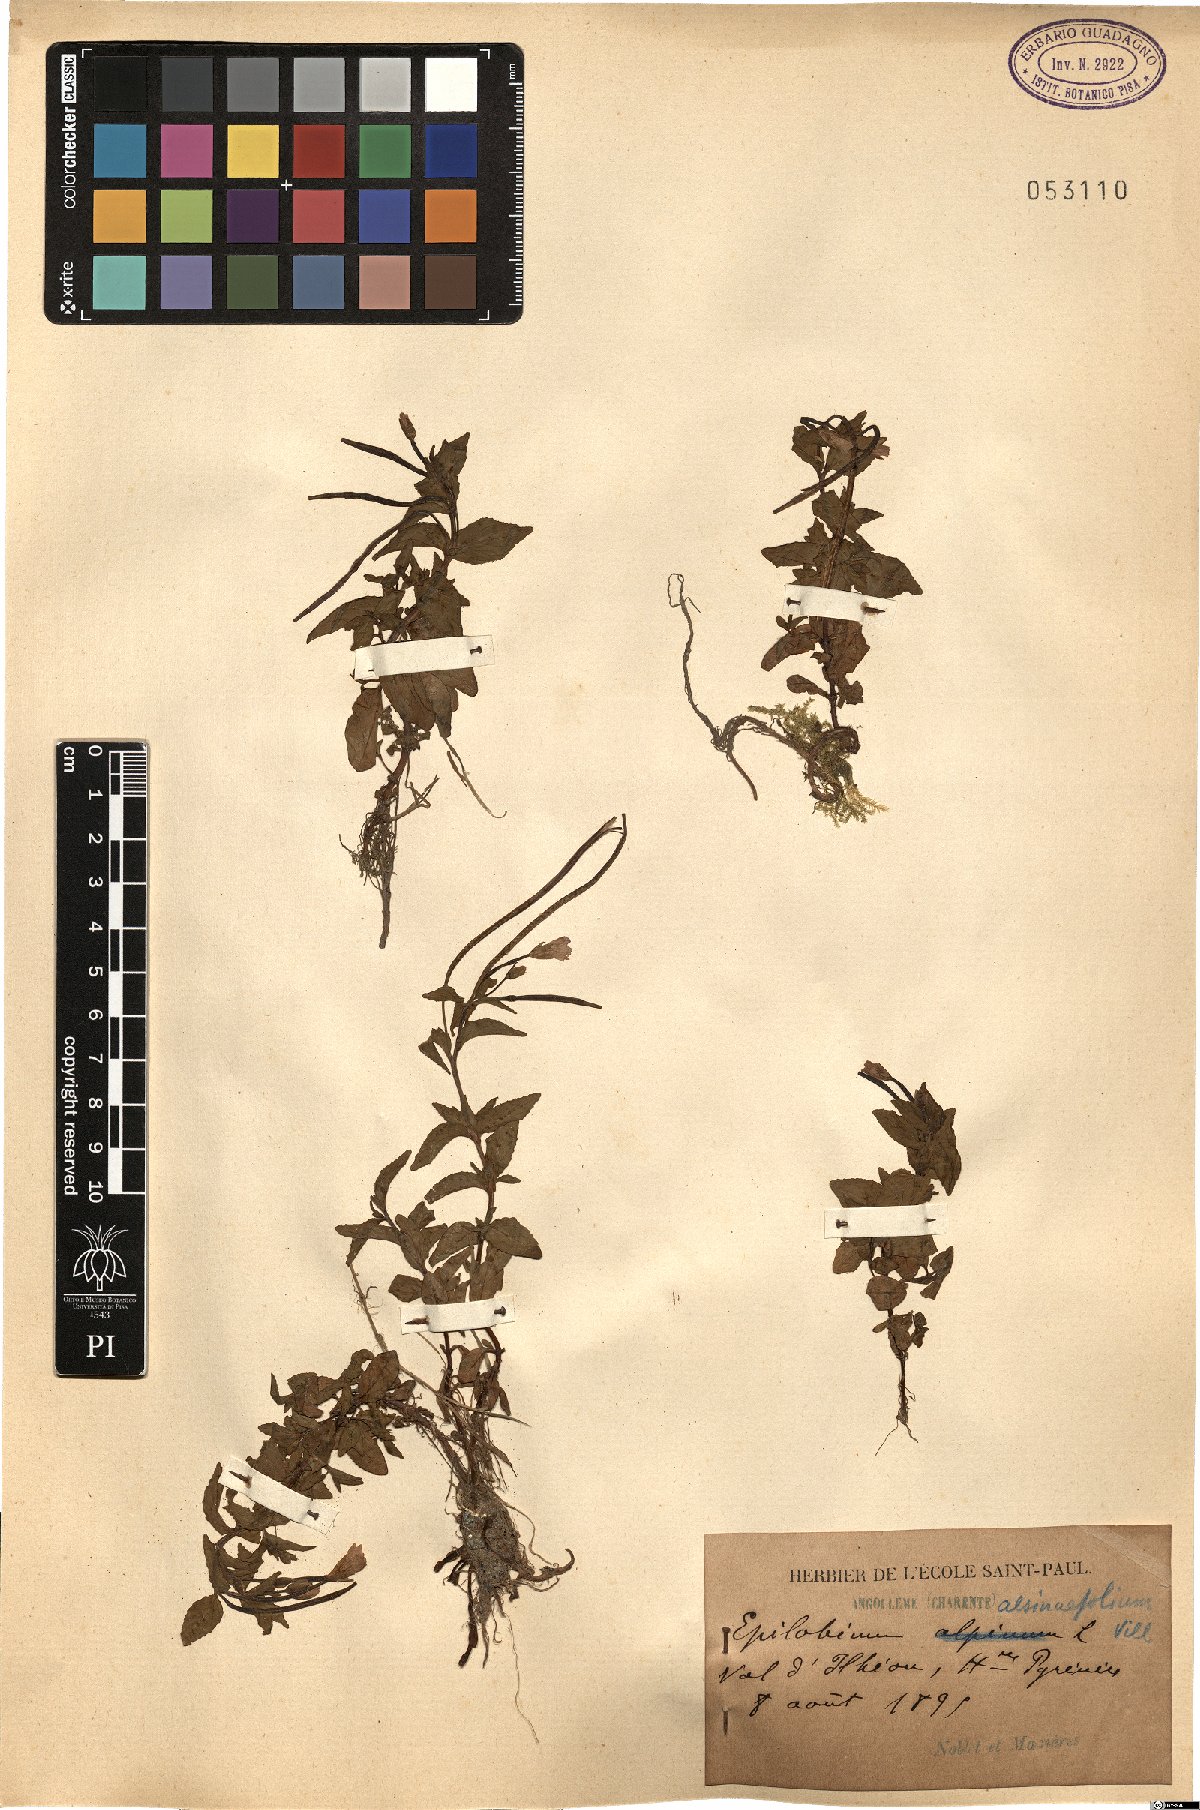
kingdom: Plantae
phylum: Tracheophyta
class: Magnoliopsida
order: Myrtales
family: Onagraceae
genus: Epilobium
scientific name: Epilobium alsinifolium
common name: Chickweed willowherb
